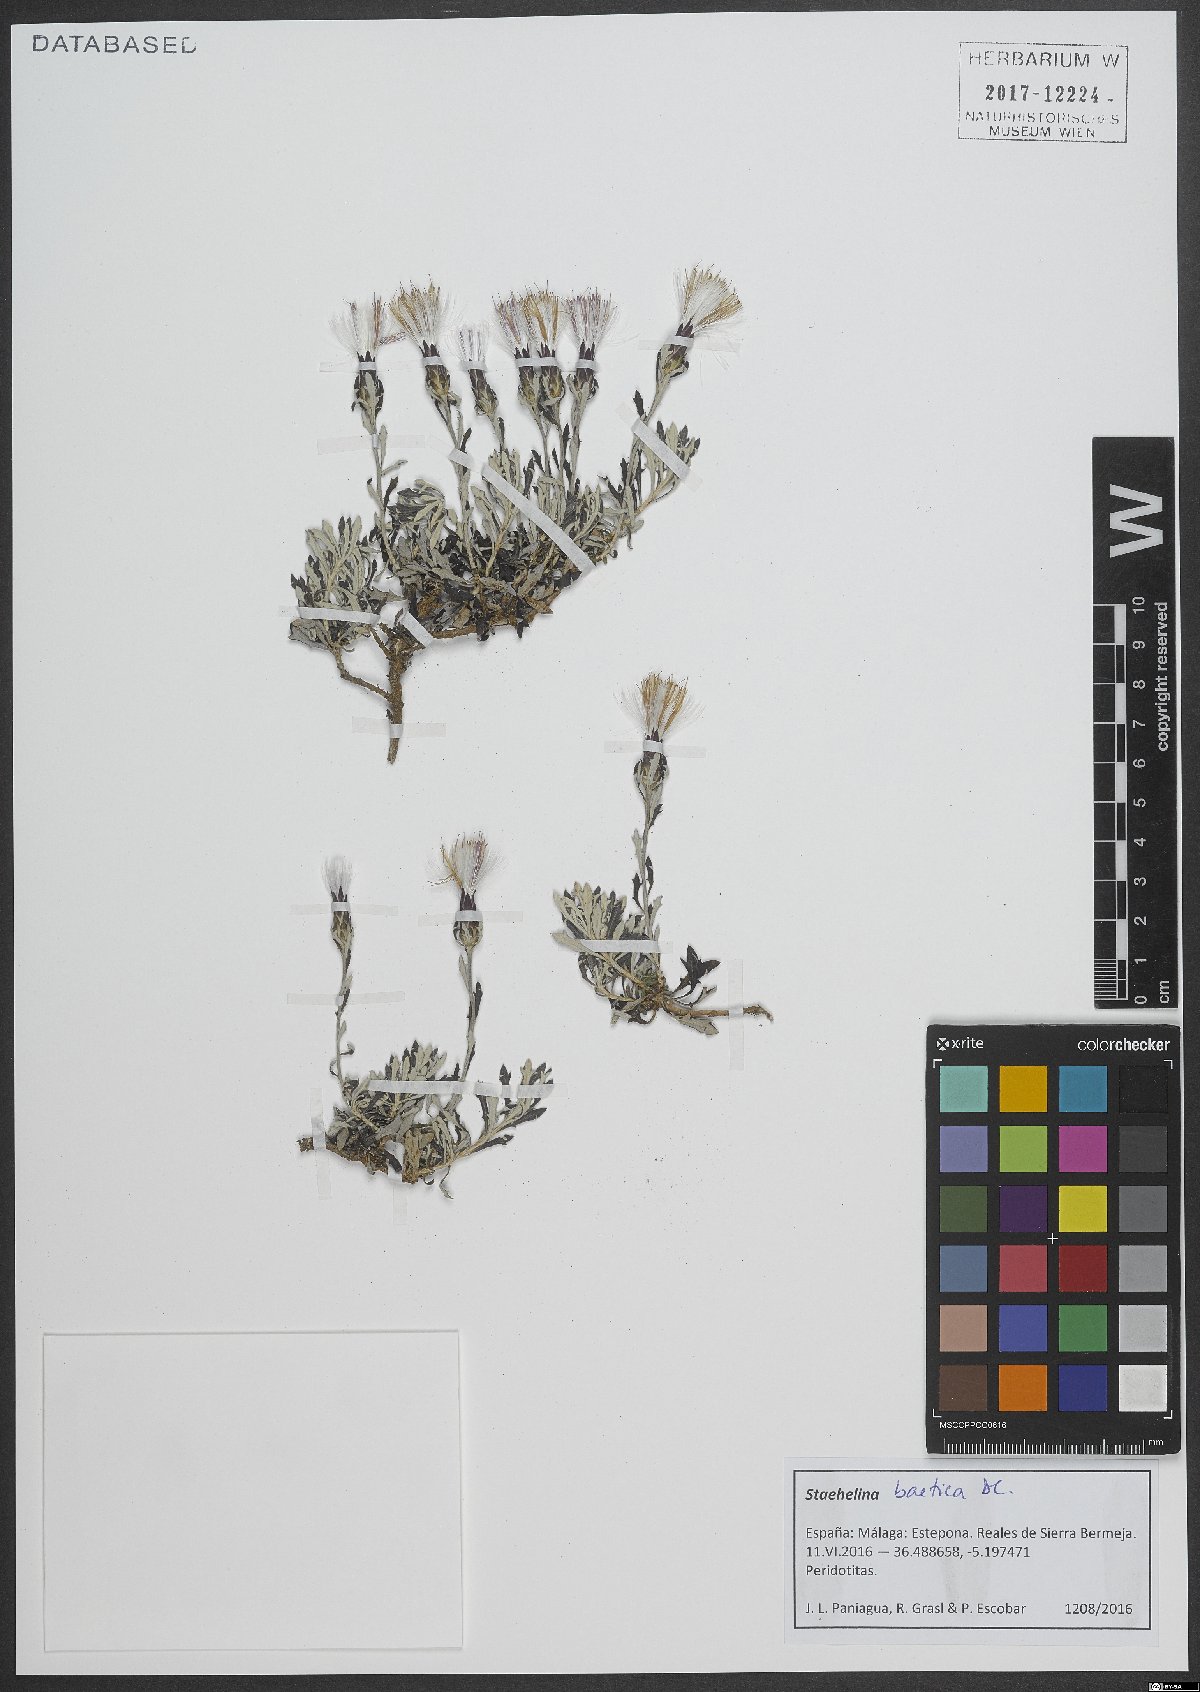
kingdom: Plantae
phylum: Tracheophyta
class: Magnoliopsida
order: Asterales
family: Asteraceae
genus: Staehelina
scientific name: Staehelina baetica
